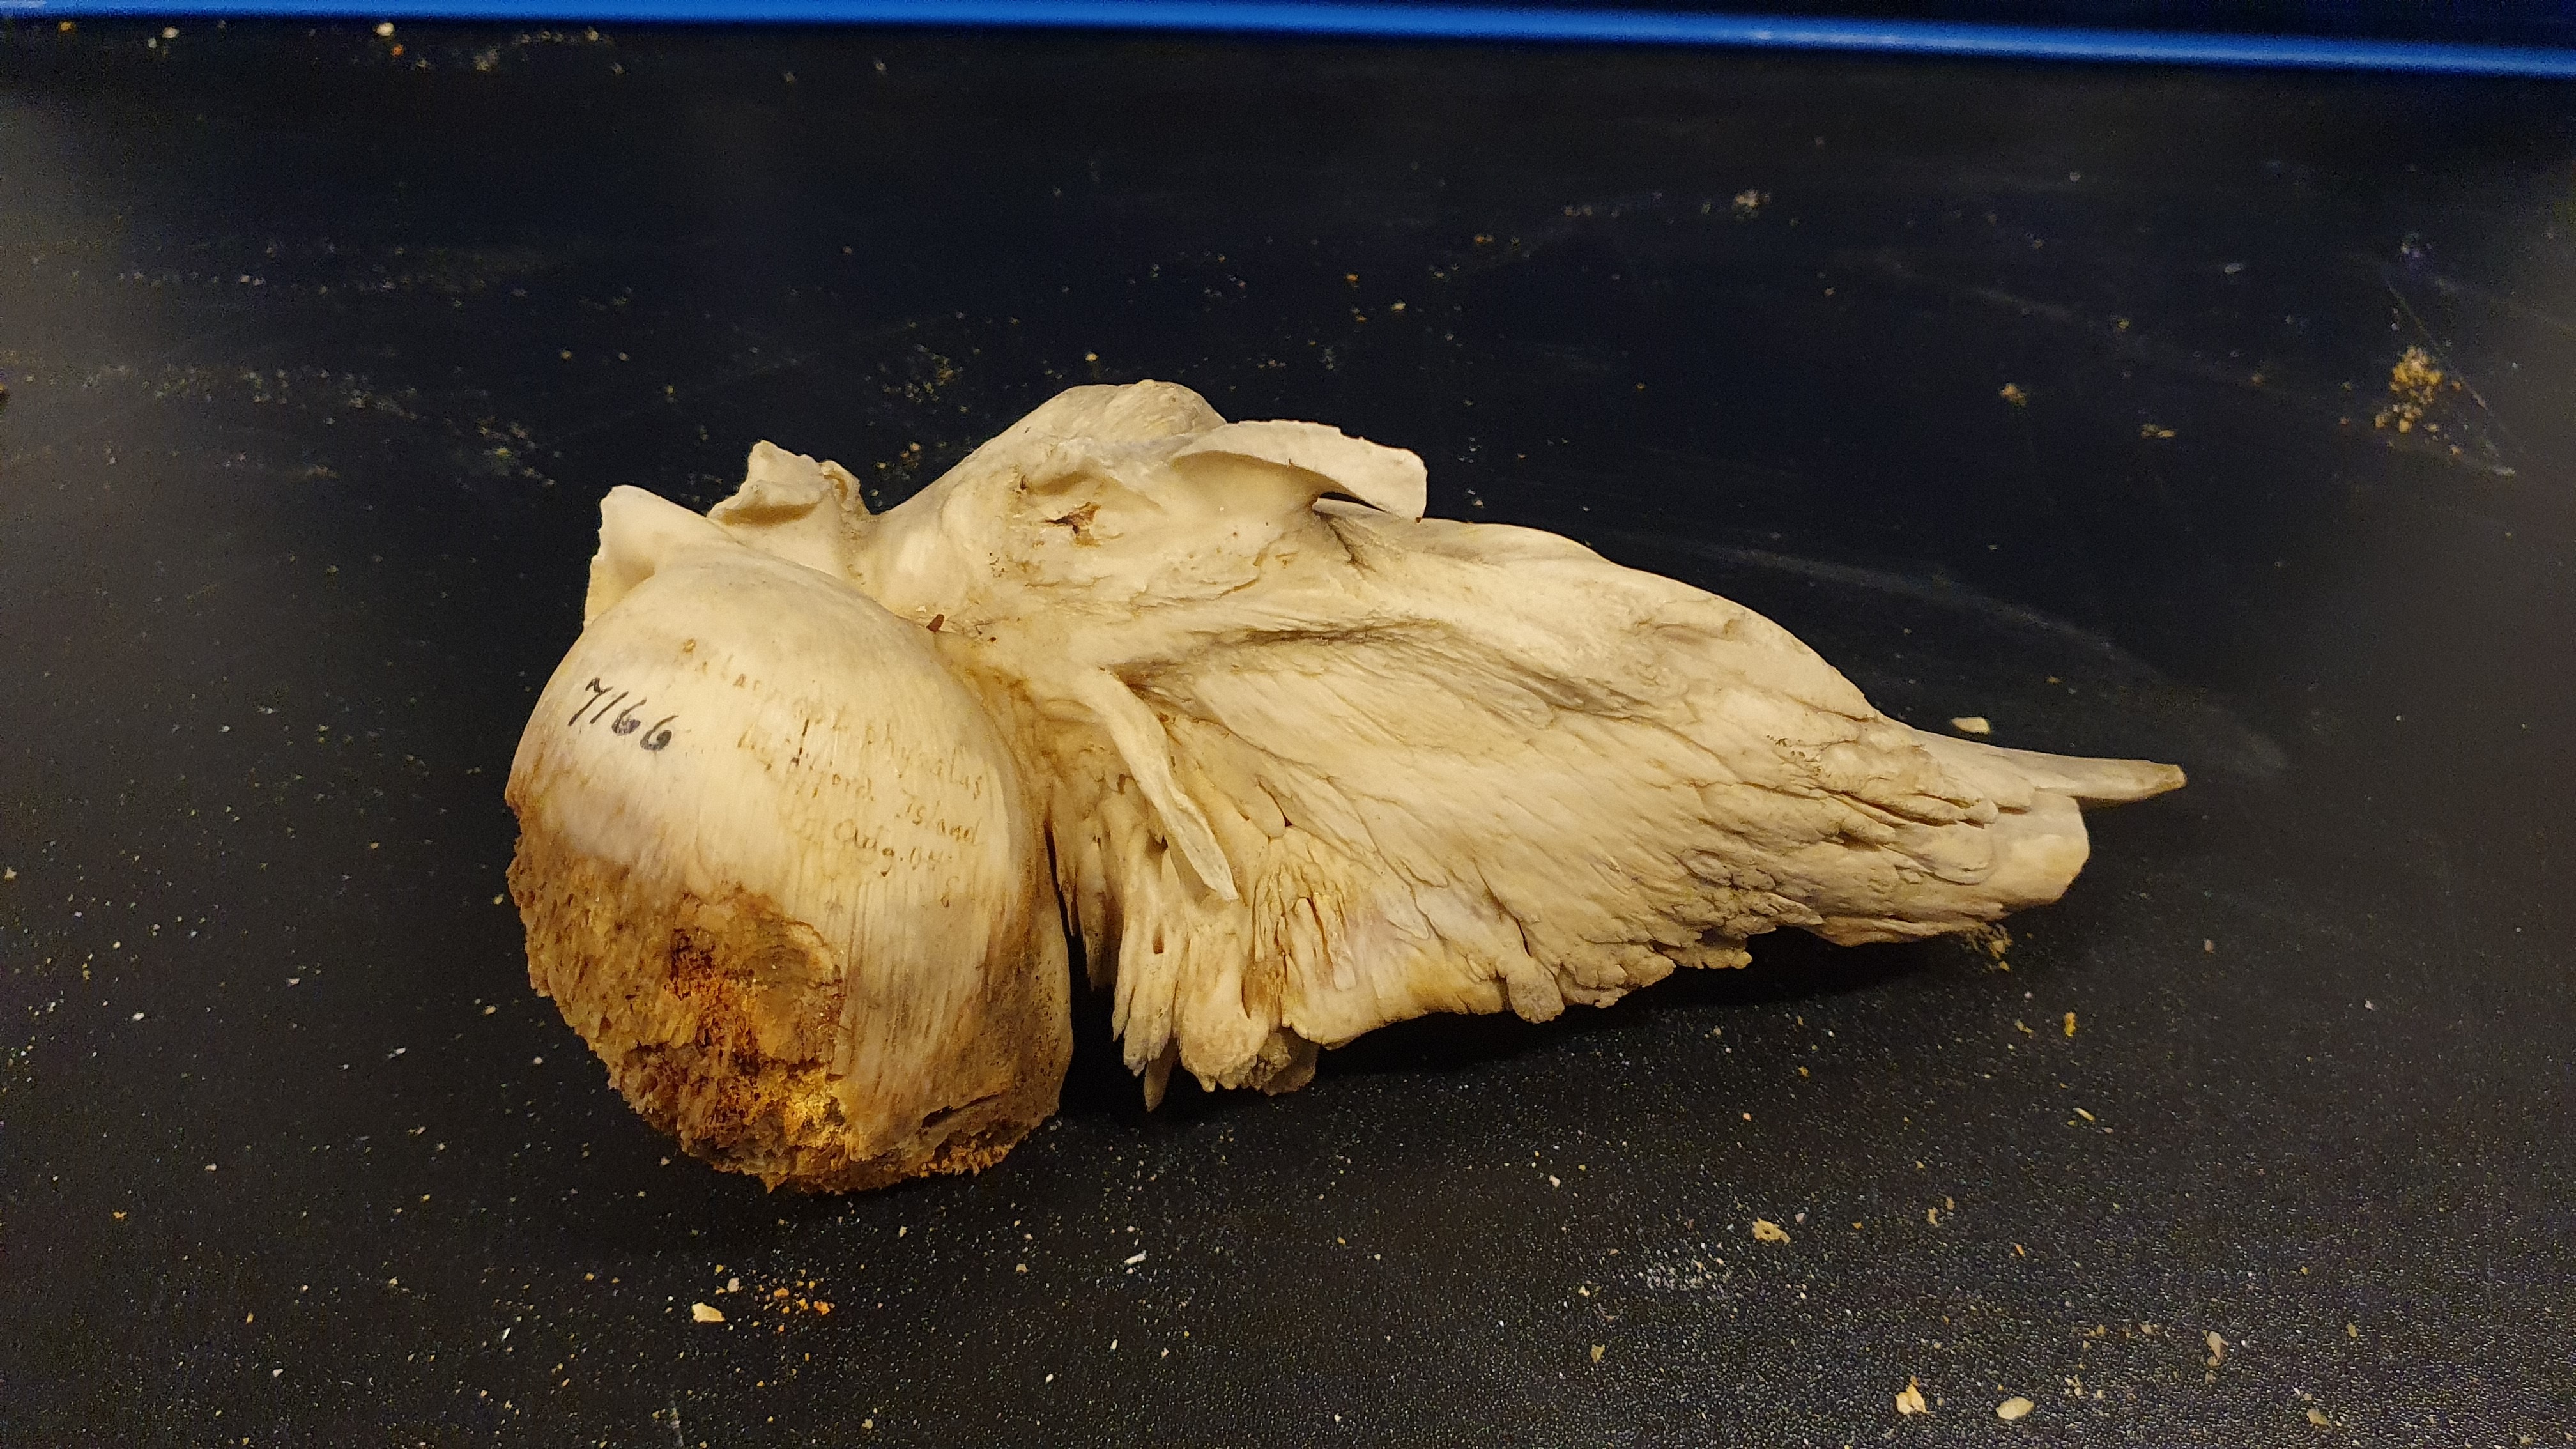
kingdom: Animalia
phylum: Chordata
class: Mammalia
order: Cetacea
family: Balaenopteridae
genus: Balaenoptera
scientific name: Balaenoptera physalus
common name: Fin whale
